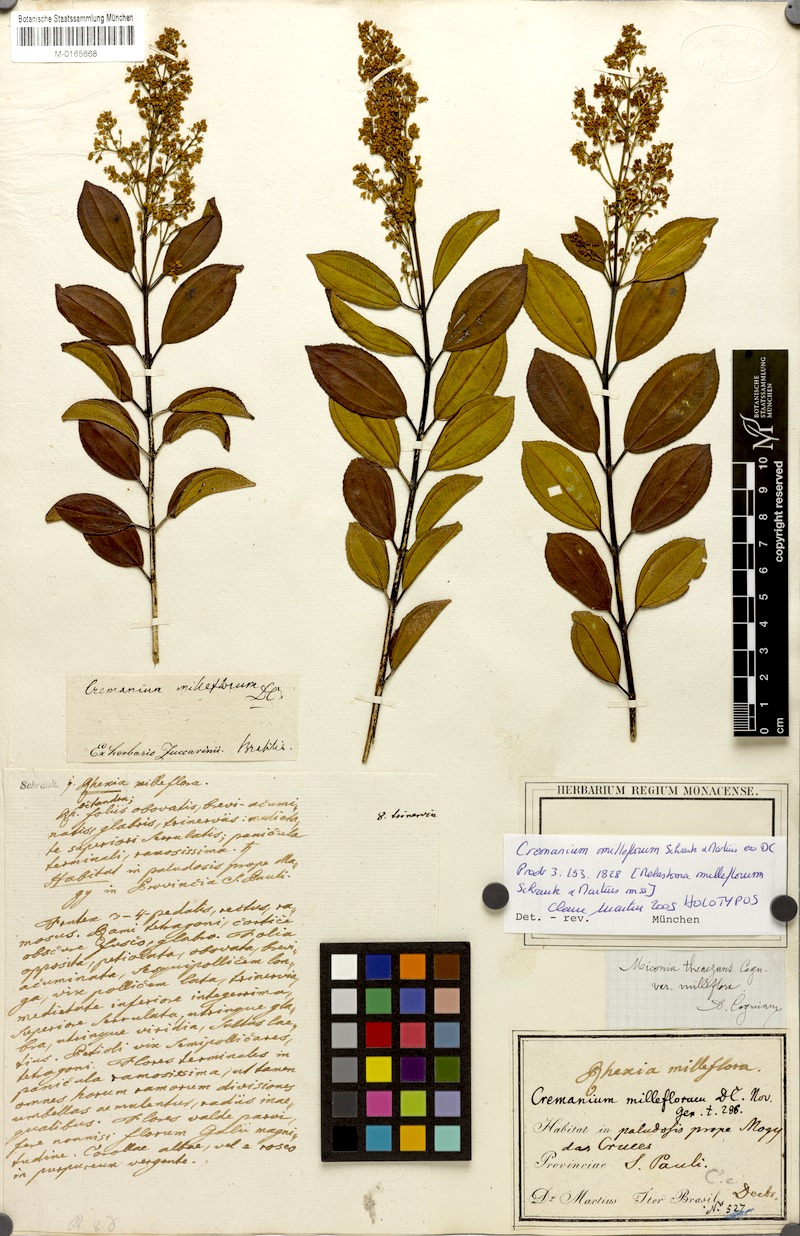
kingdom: Plantae
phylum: Tracheophyta
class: Magnoliopsida
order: Myrtales
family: Melastomataceae
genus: Miconia
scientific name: Miconia theizans
